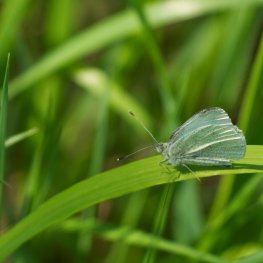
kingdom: Animalia
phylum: Arthropoda
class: Insecta
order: Lepidoptera
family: Pieridae
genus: Pieris
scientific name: Pieris rapae
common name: Cabbage White
